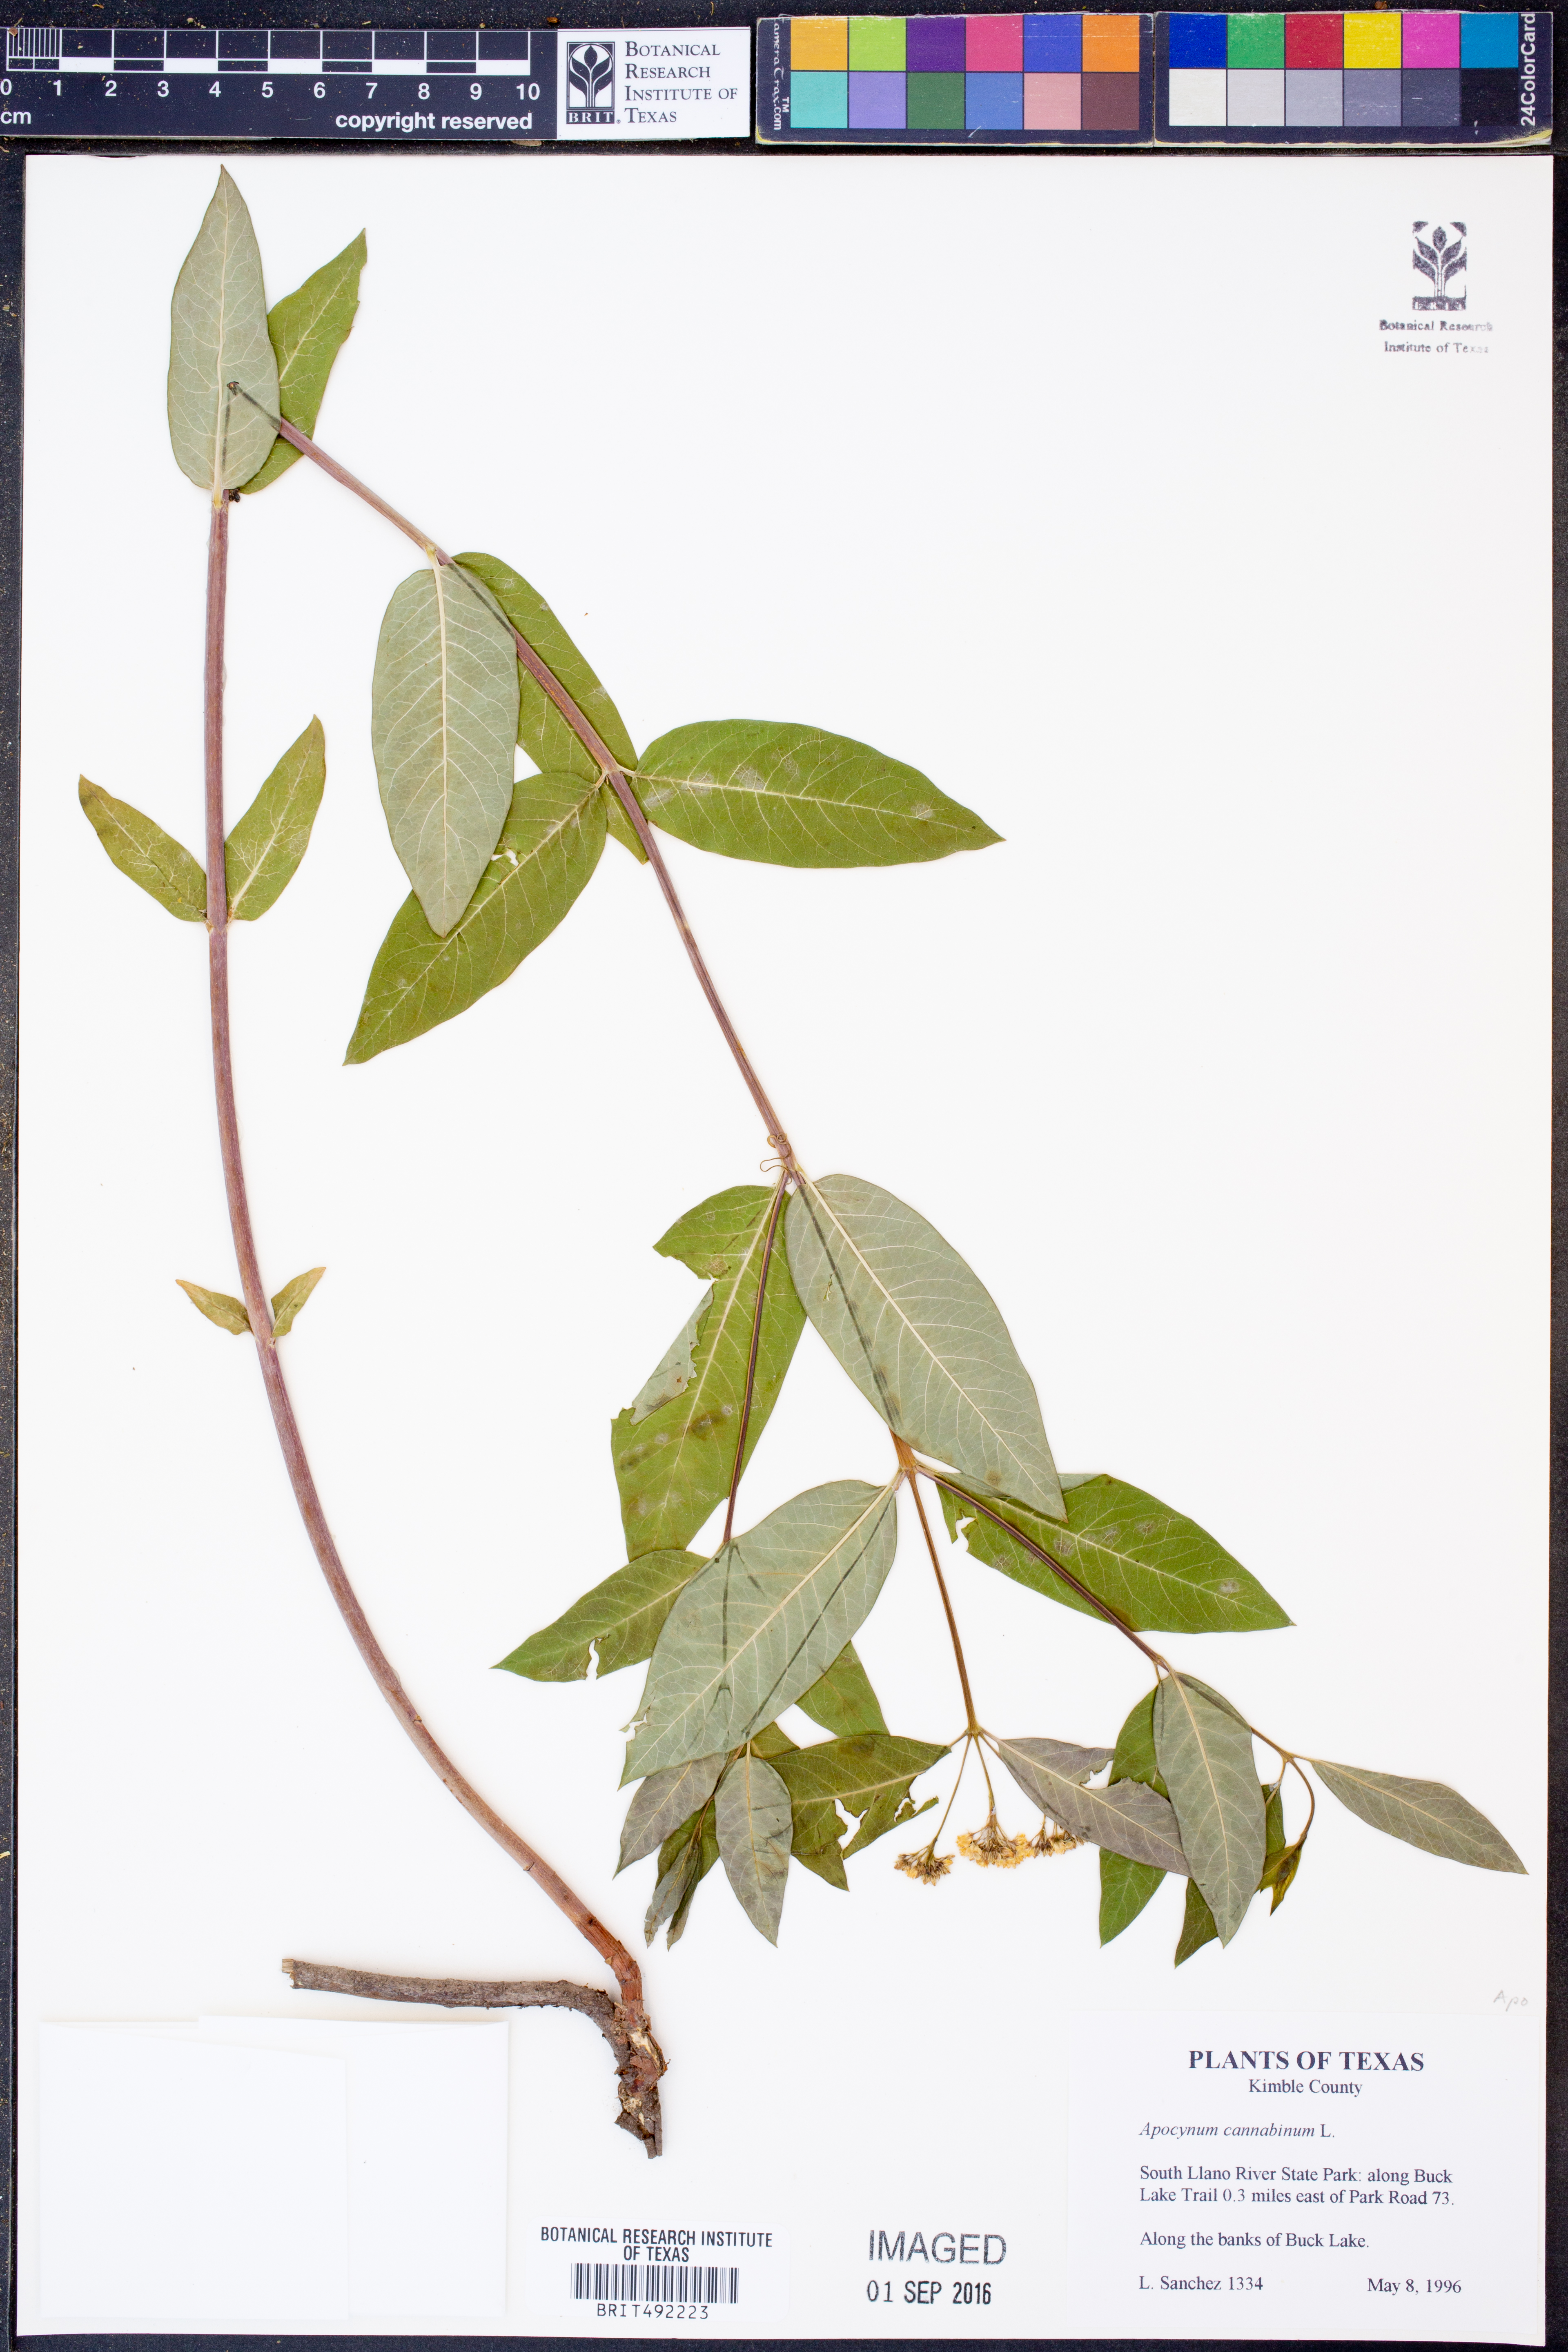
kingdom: Plantae
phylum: Tracheophyta
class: Magnoliopsida
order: Gentianales
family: Apocynaceae
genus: Apocynum
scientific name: Apocynum cannabinum
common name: Hemp dogbane
